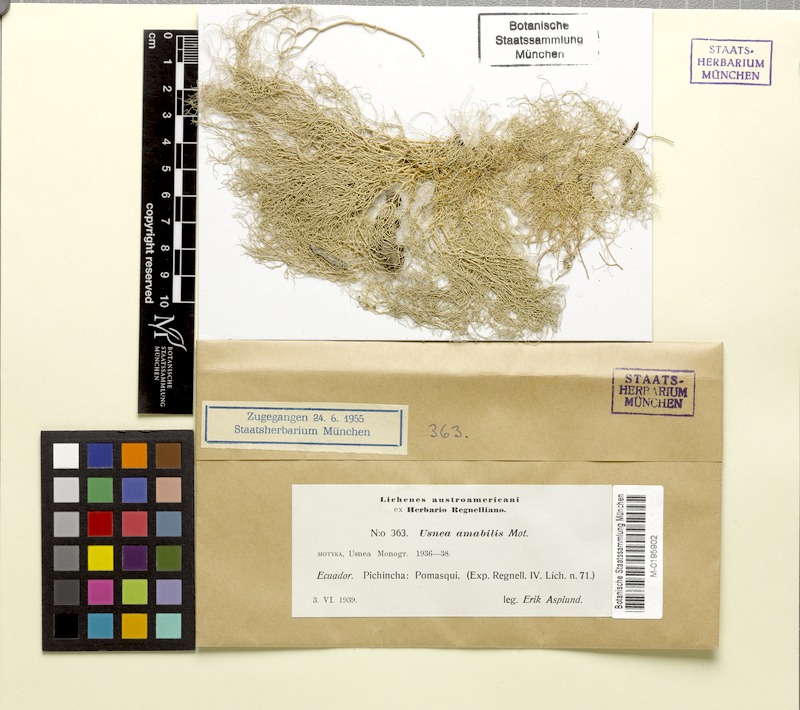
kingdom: Fungi
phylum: Ascomycota
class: Lecanoromycetes
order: Lecanorales
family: Parmeliaceae
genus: Usnea
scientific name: Usnea amabilis
